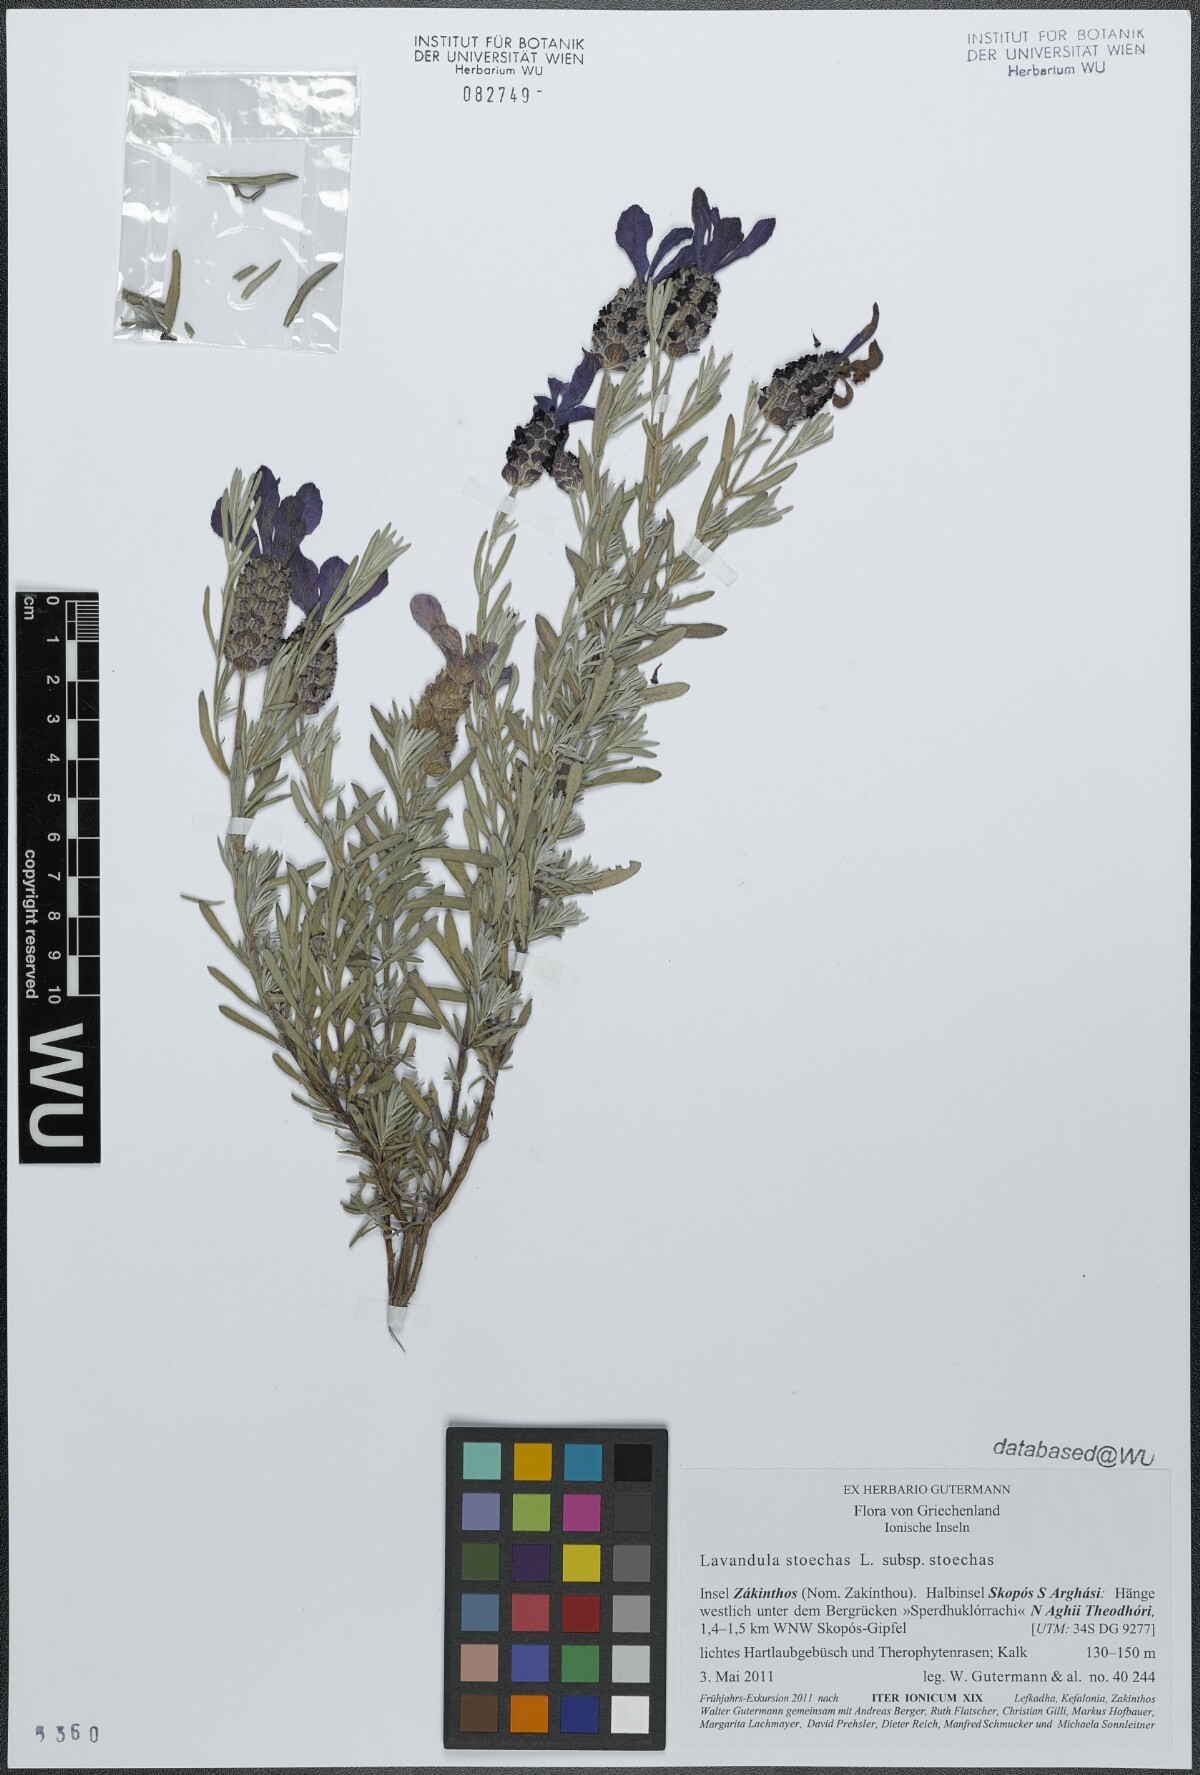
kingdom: Plantae
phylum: Tracheophyta
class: Magnoliopsida
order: Lamiales
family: Lamiaceae
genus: Lavandula
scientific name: Lavandula stoechas
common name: French lavender
